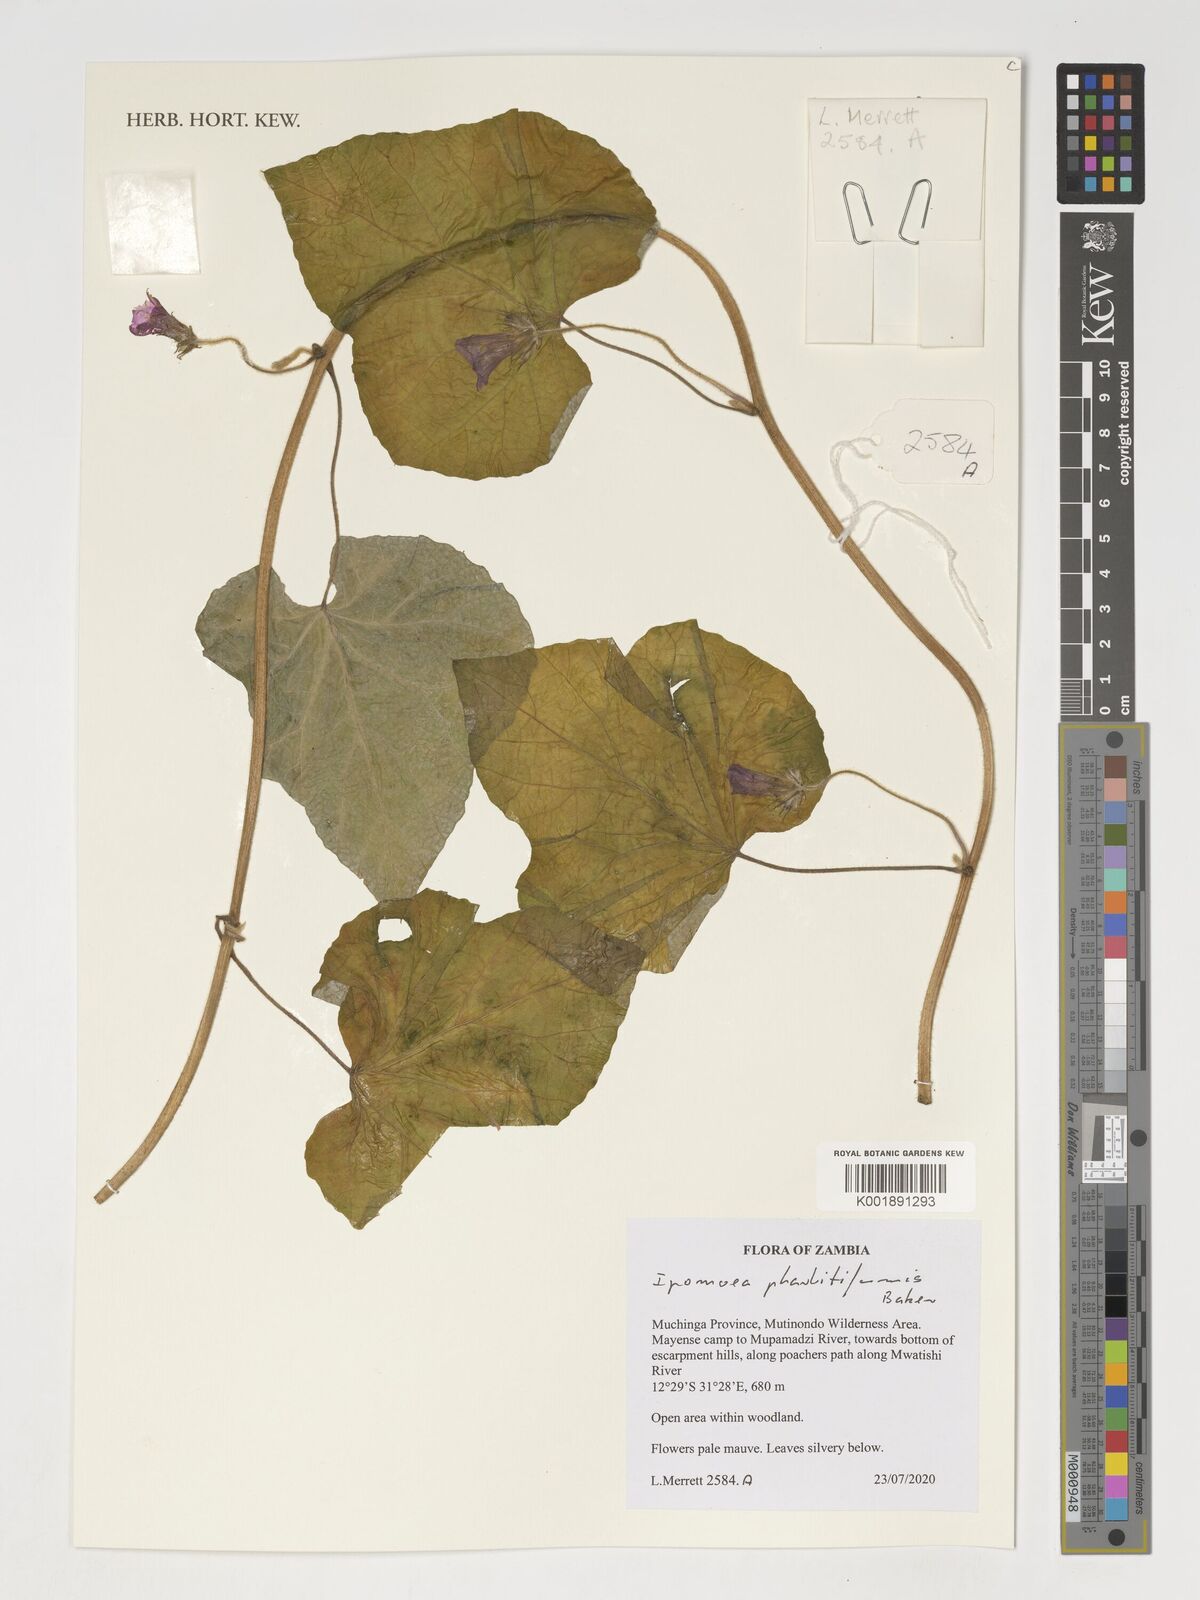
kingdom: Plantae
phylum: Tracheophyta
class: Magnoliopsida
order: Solanales
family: Convolvulaceae
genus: Ipomoea
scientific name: Ipomoea chrysochaetia
